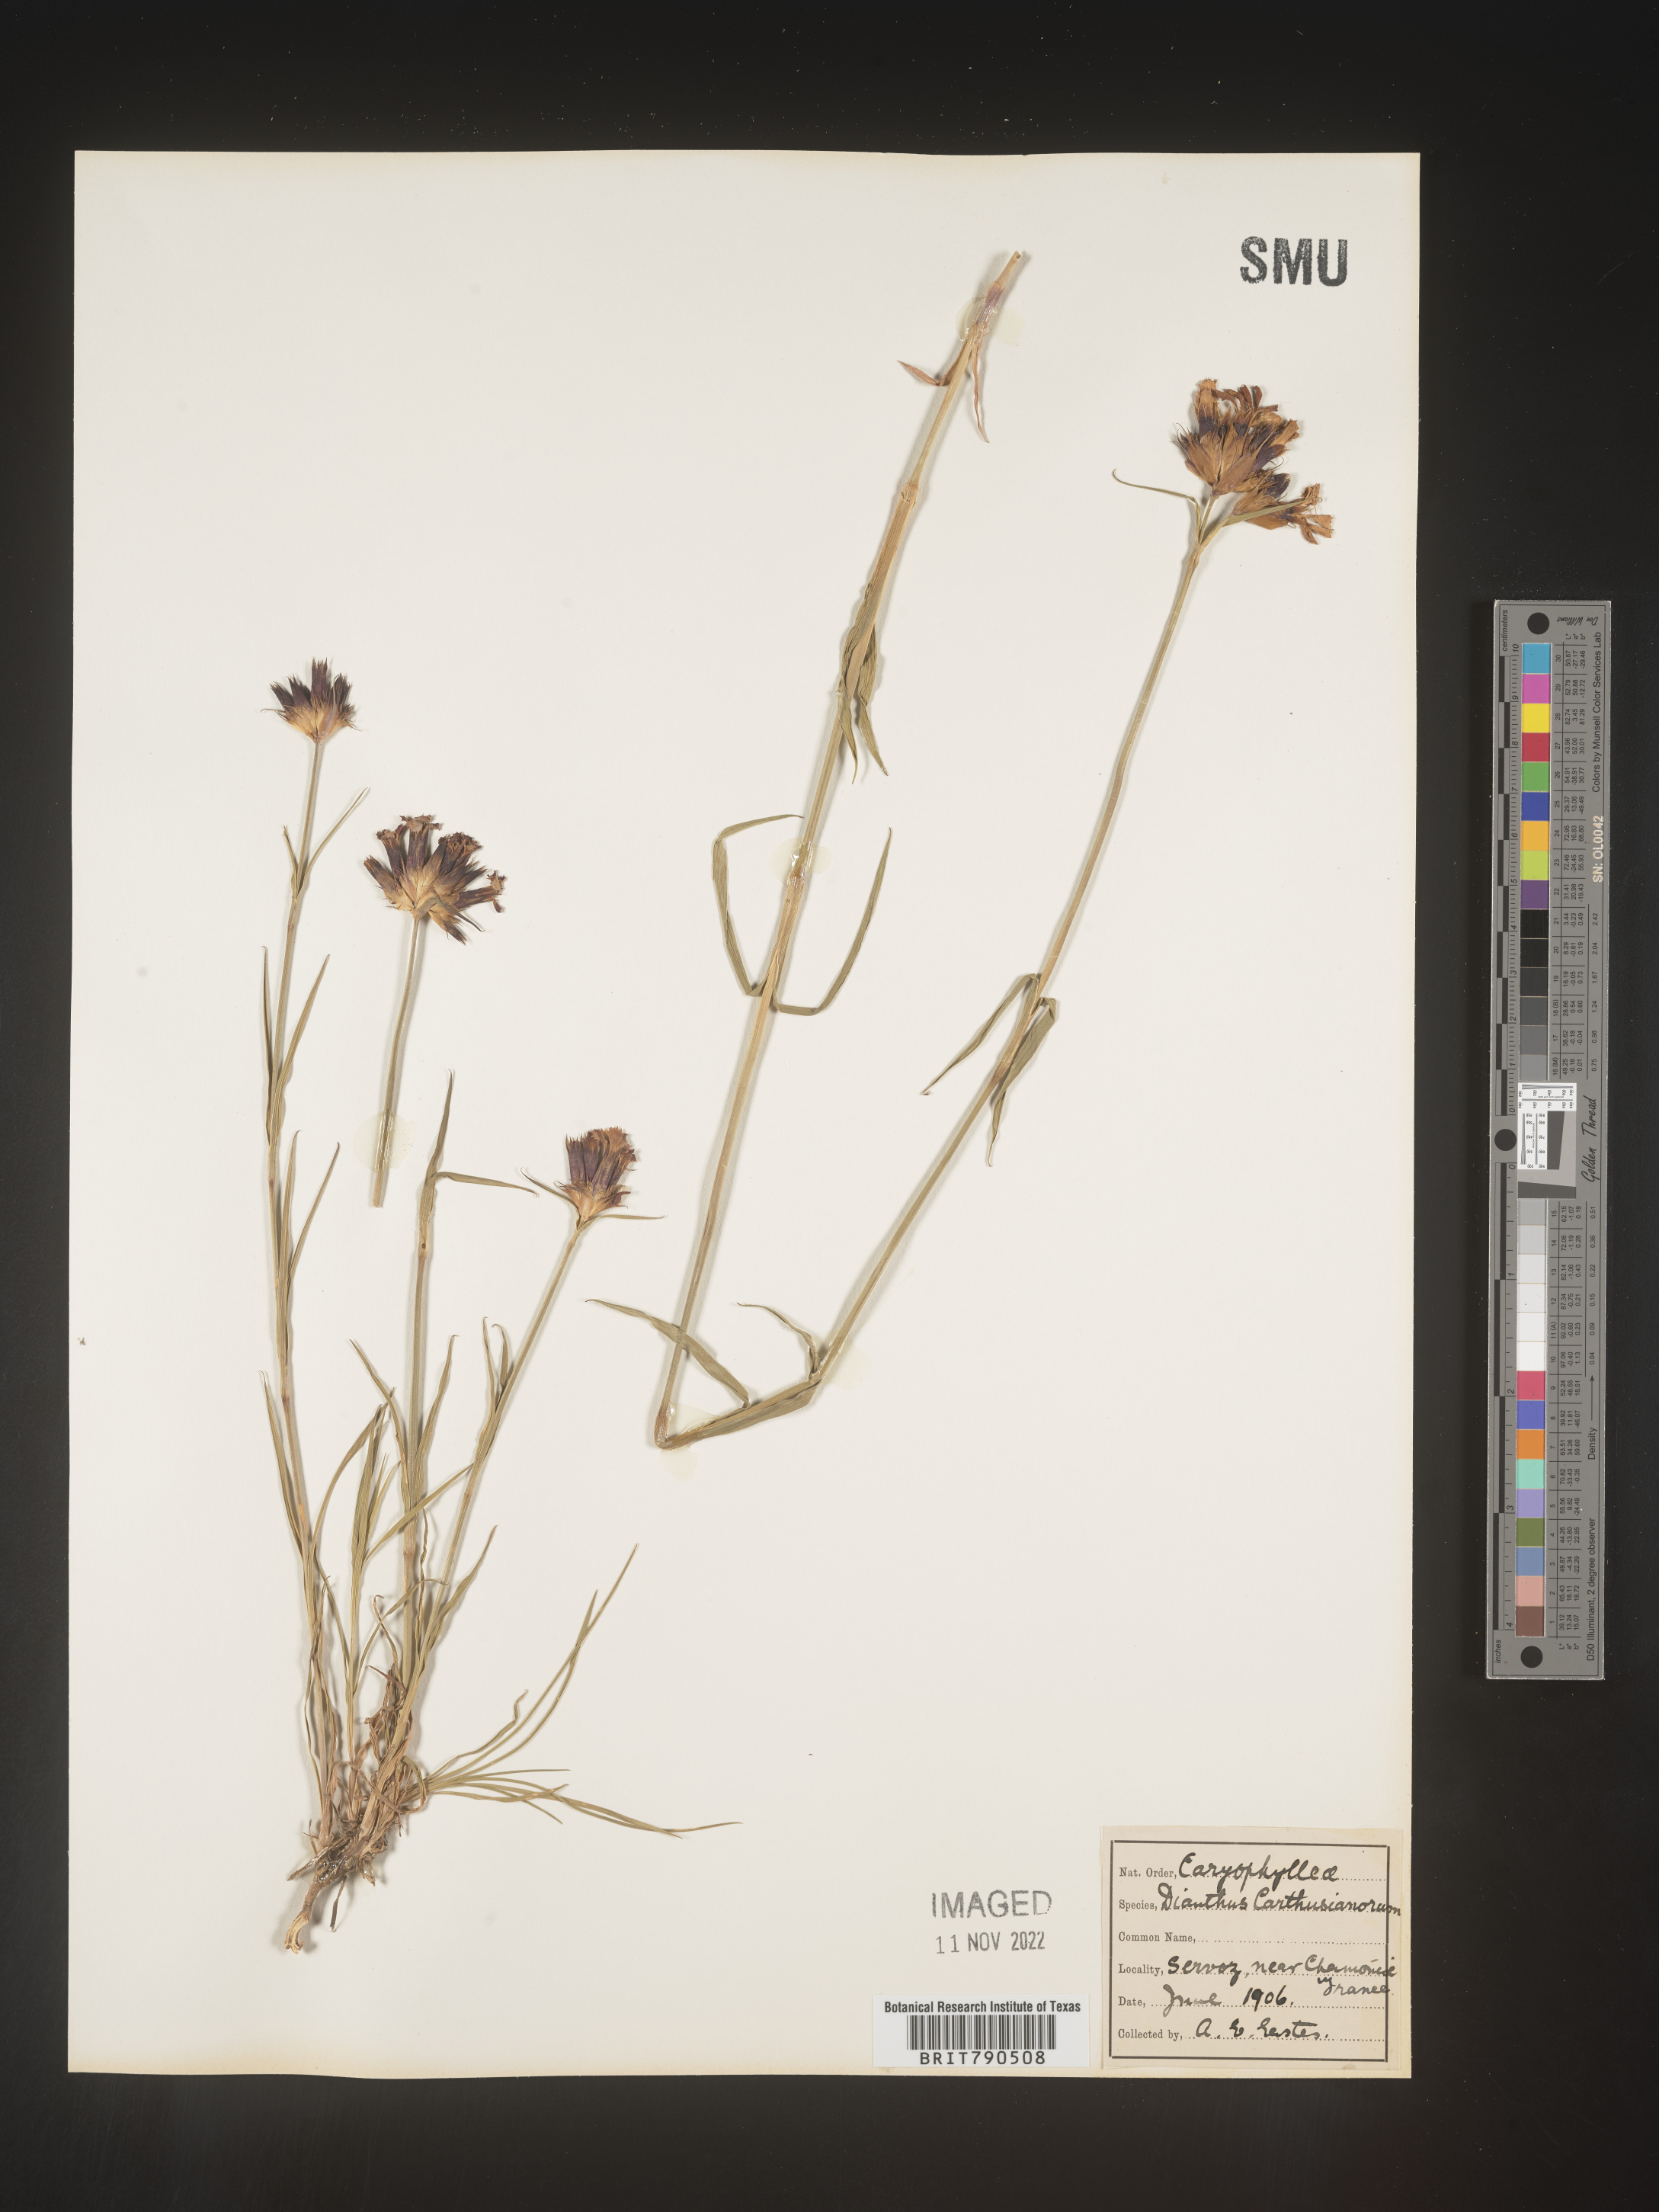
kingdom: Plantae
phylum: Tracheophyta
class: Magnoliopsida
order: Caryophyllales
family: Caryophyllaceae
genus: Dianthus
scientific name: Dianthus carthusianorum
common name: Carthusian pink
